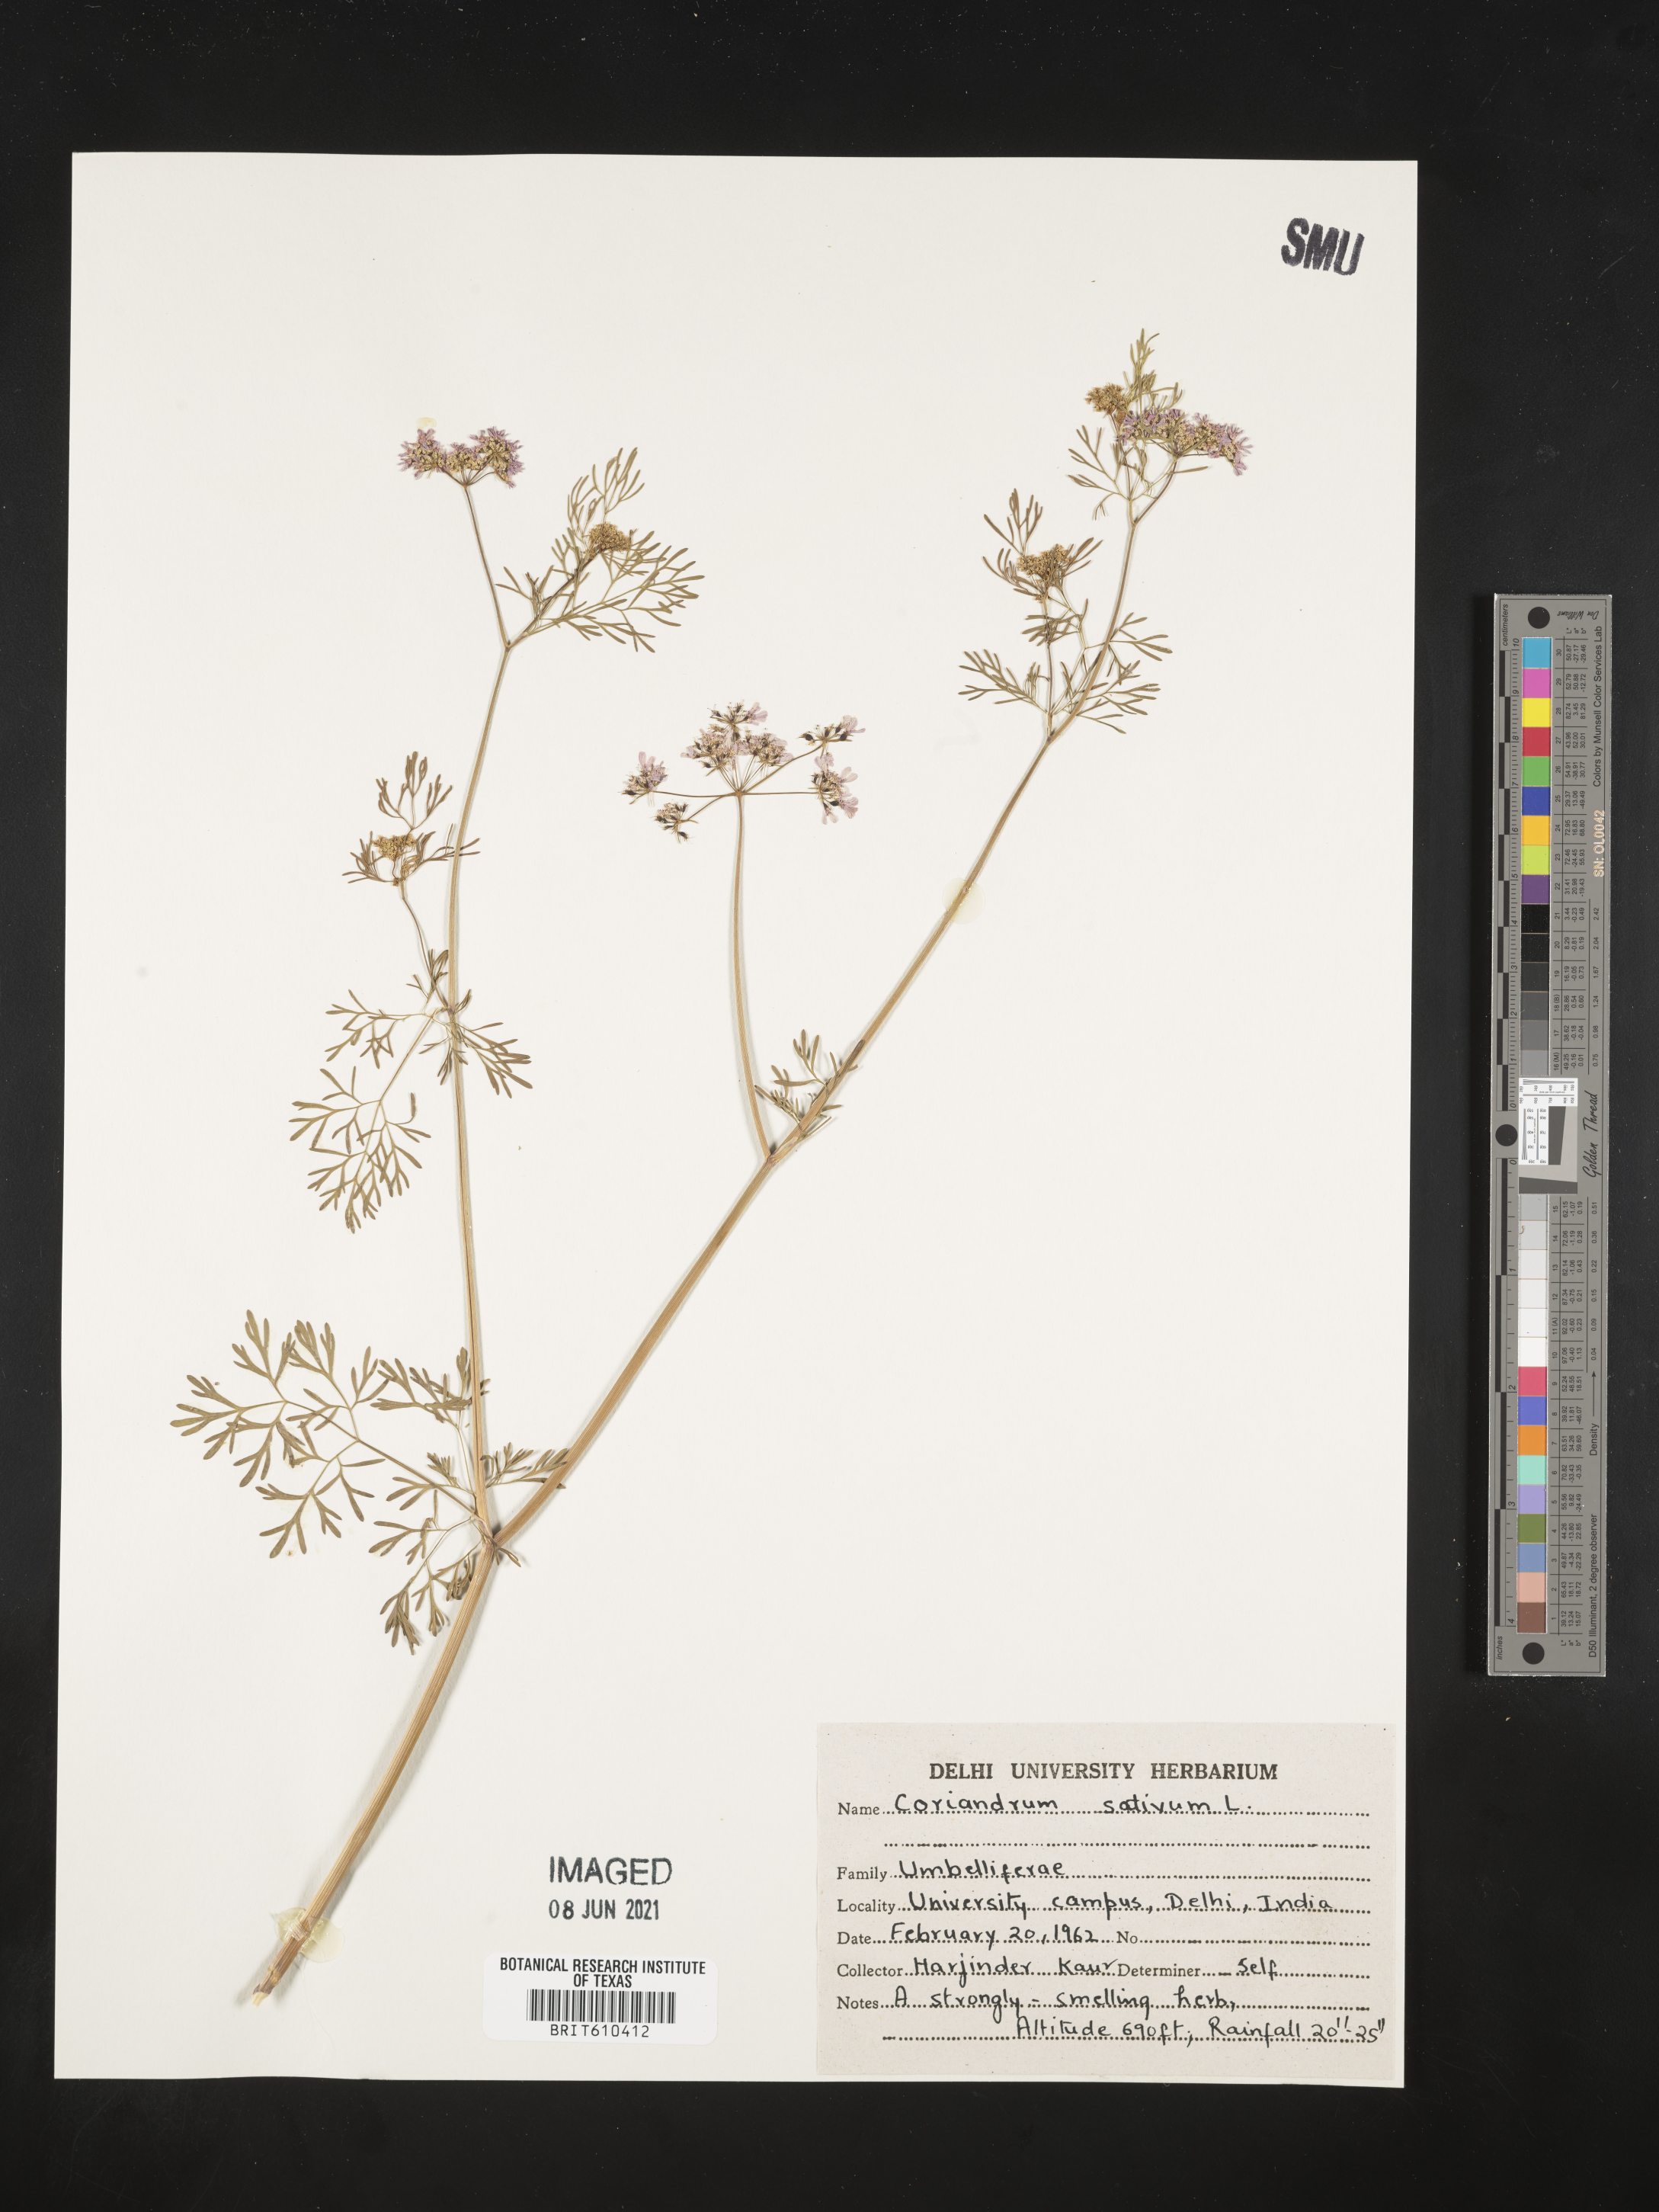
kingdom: Plantae
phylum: Tracheophyta
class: Magnoliopsida
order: Apiales
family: Apiaceae
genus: Coriandrum
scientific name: Coriandrum sativum
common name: Coriander
